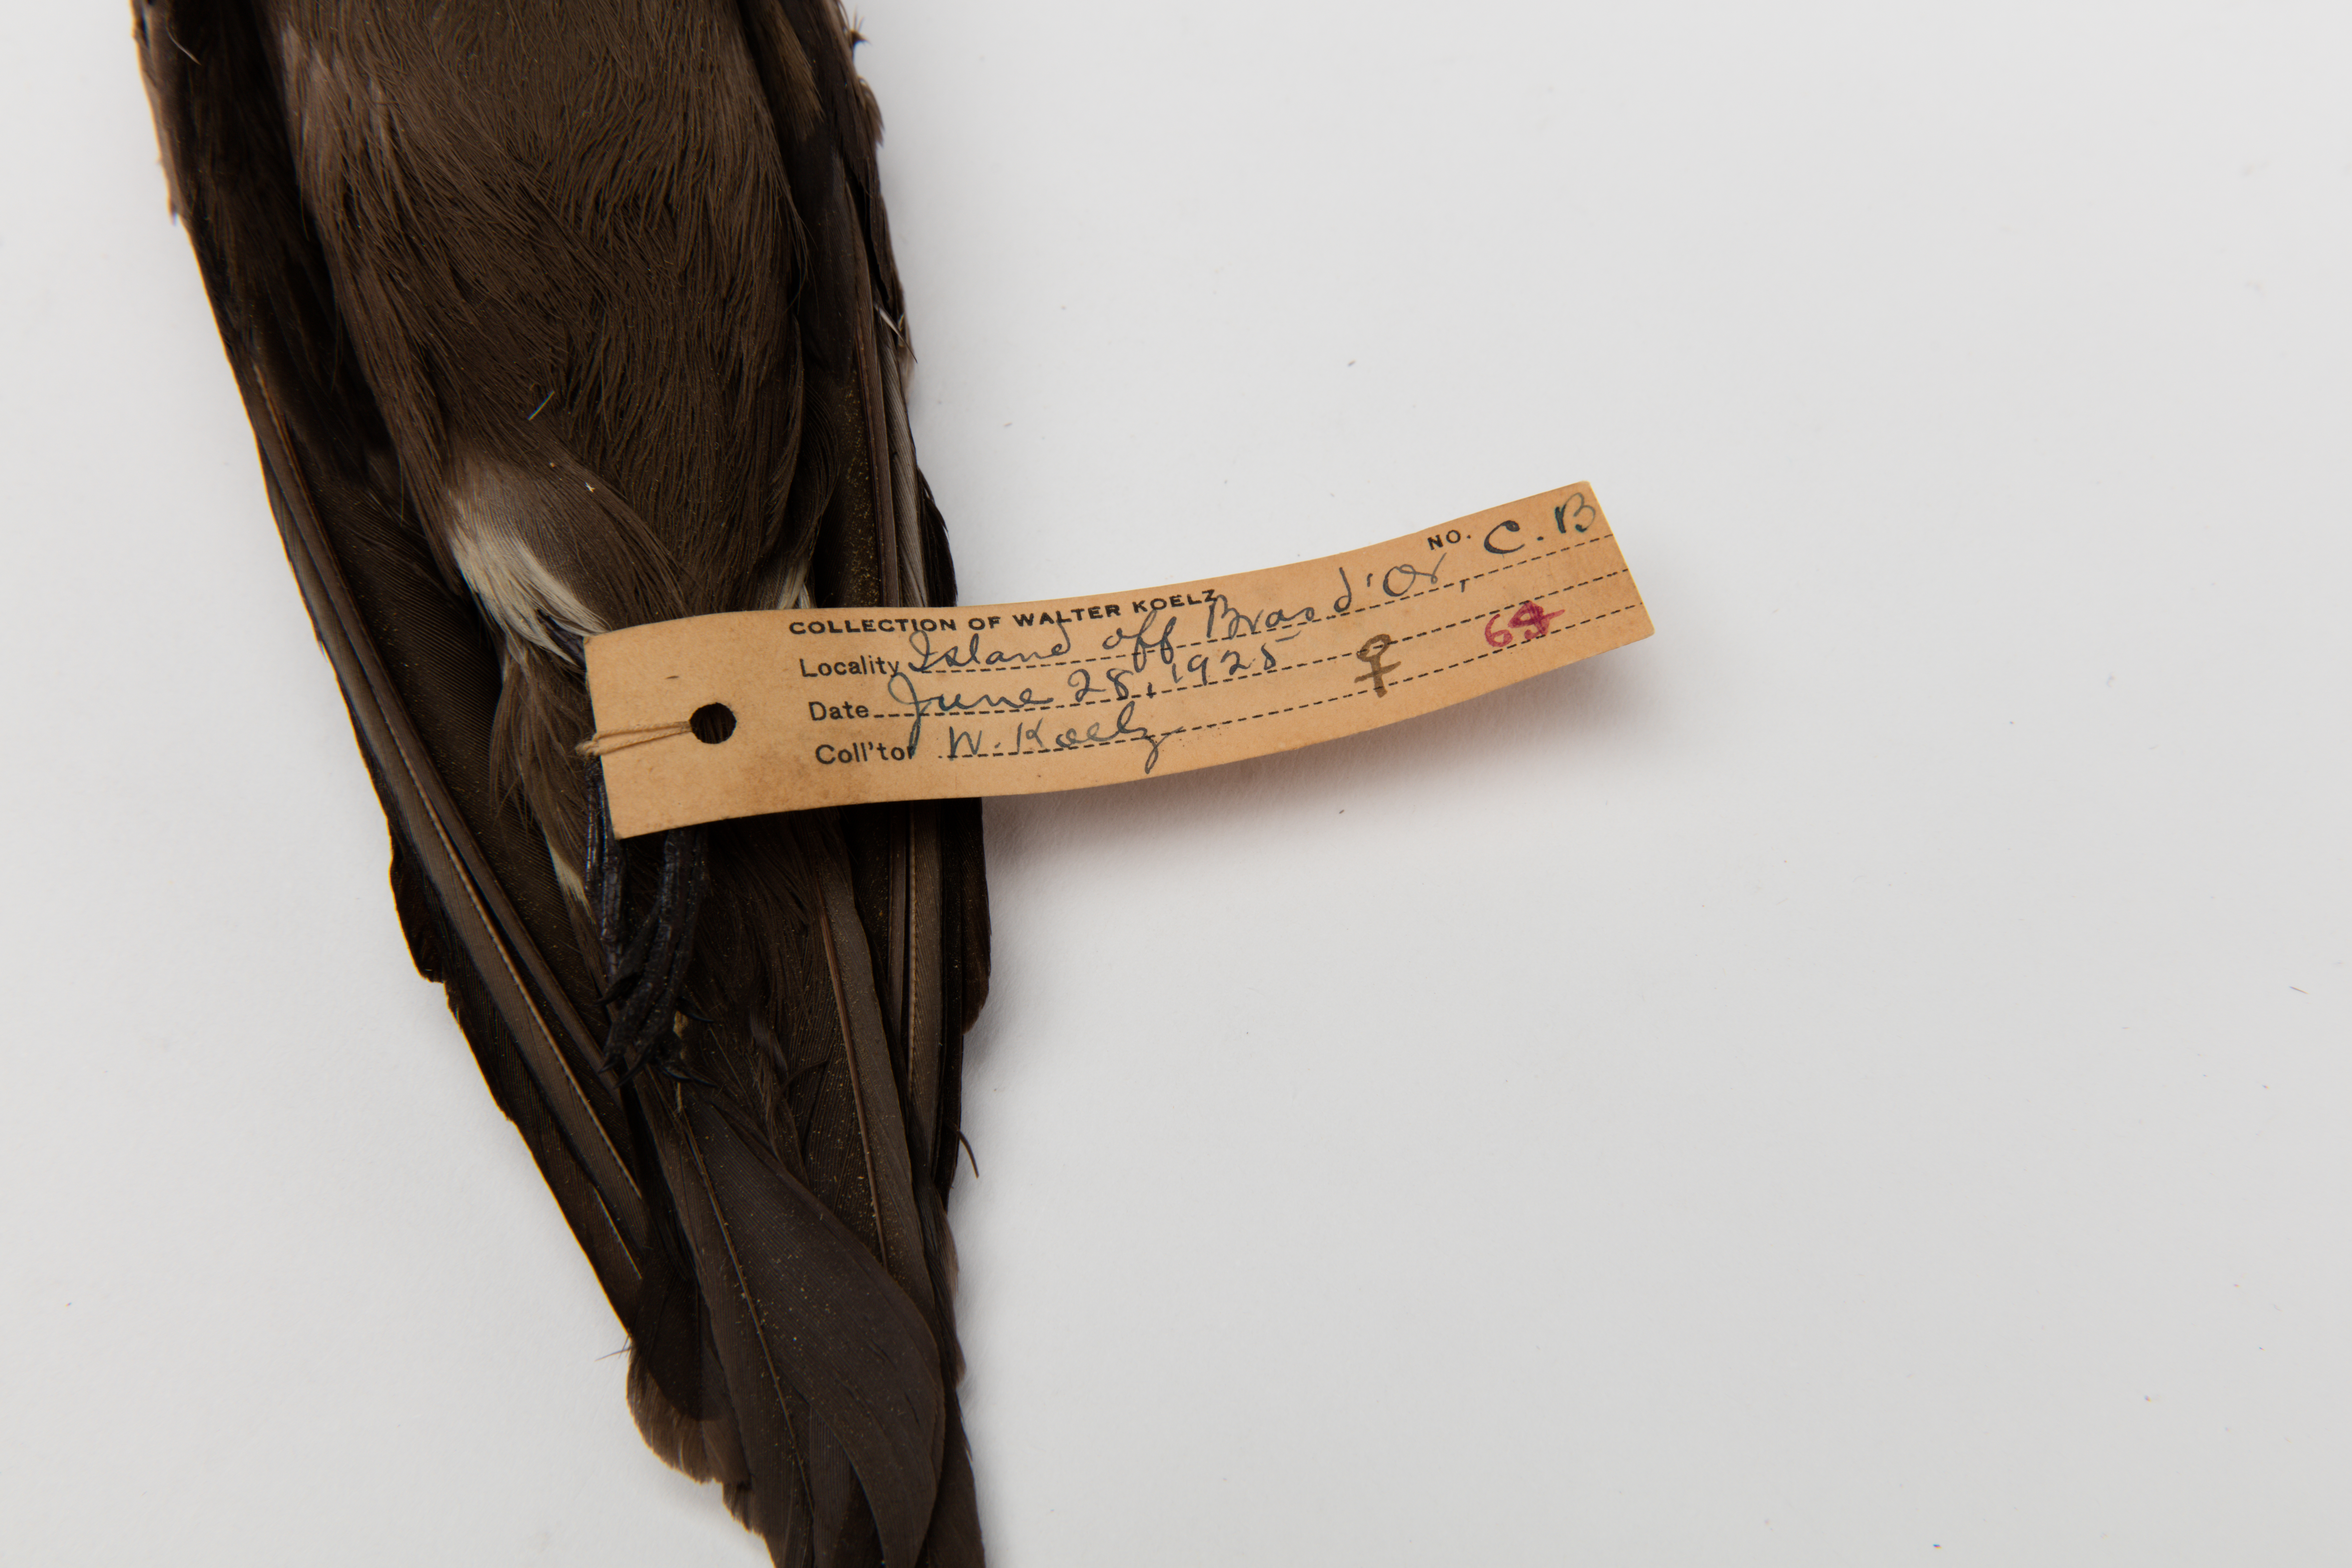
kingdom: Animalia
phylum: Chordata
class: Aves
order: Procellariiformes
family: Hydrobatidae
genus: Oceanodroma
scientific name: Oceanodroma leucorhoa
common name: Leach's storm-petrel
